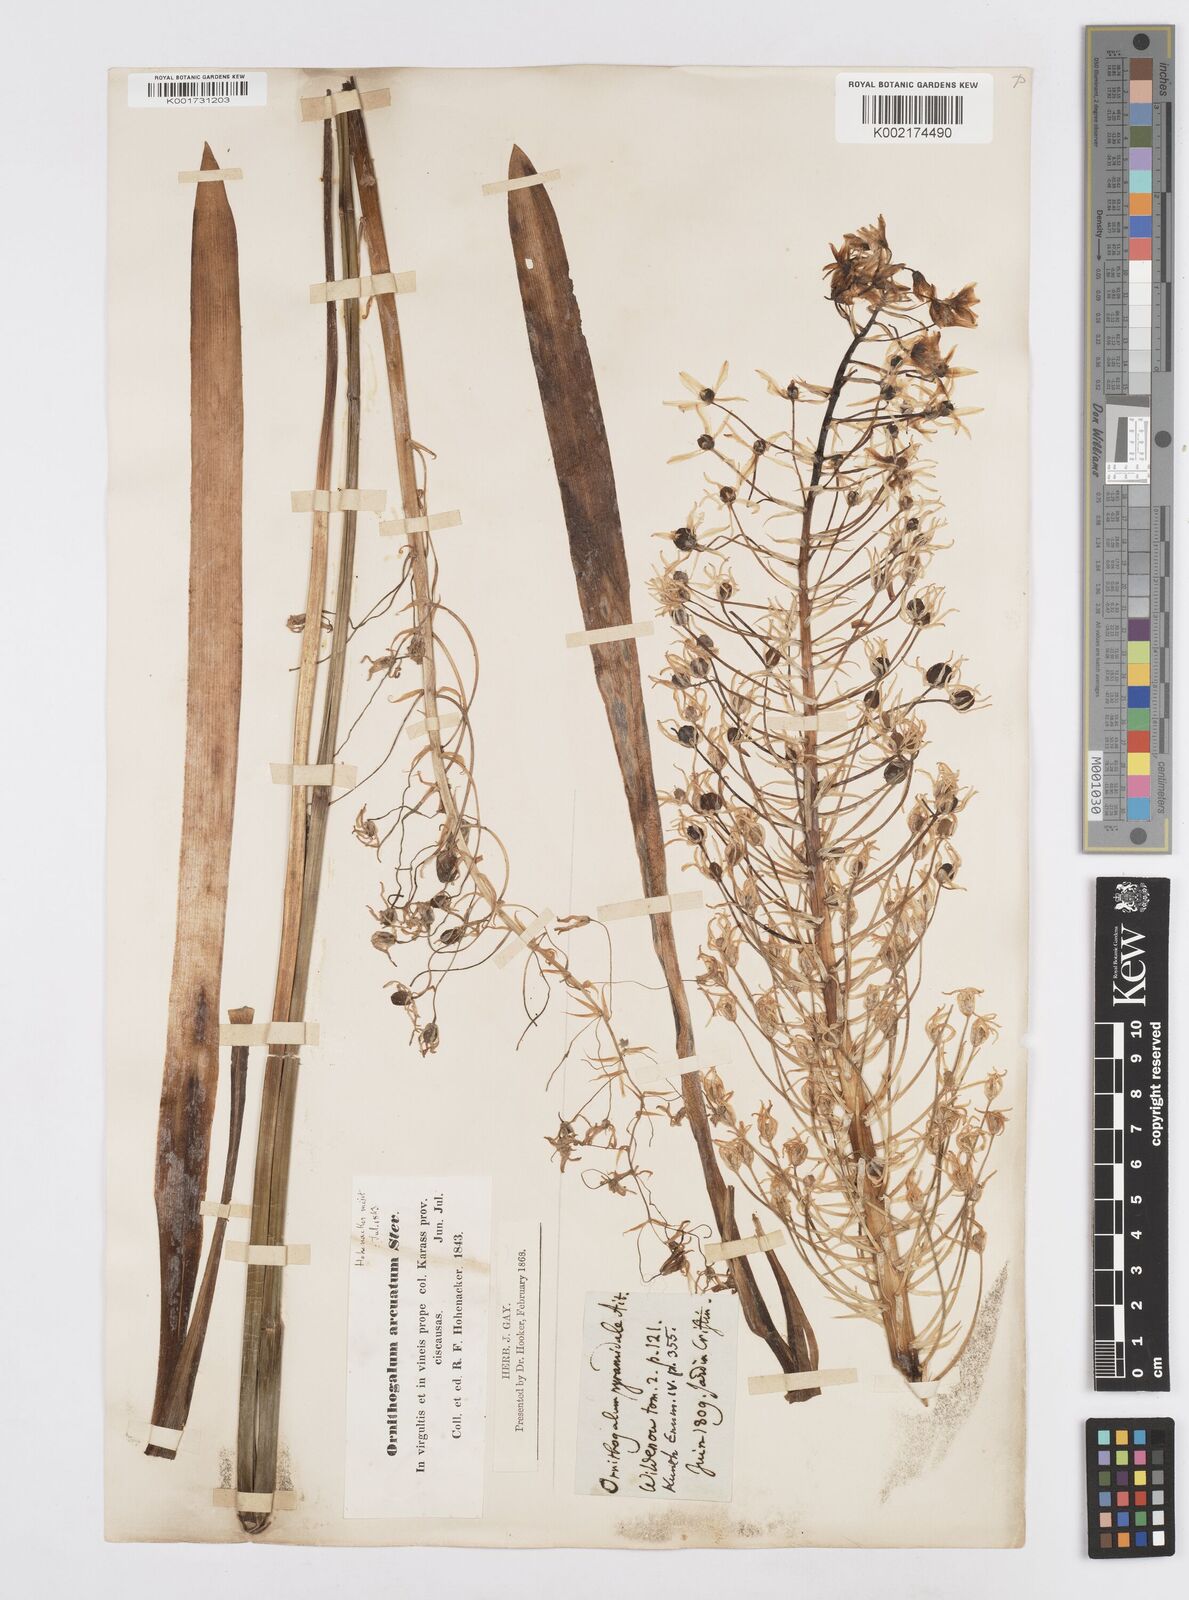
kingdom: Plantae
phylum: Tracheophyta
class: Liliopsida
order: Asparagales
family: Asparagaceae
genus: Ornithogalum
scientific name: Ornithogalum narbonense
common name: Bath-asparagus
